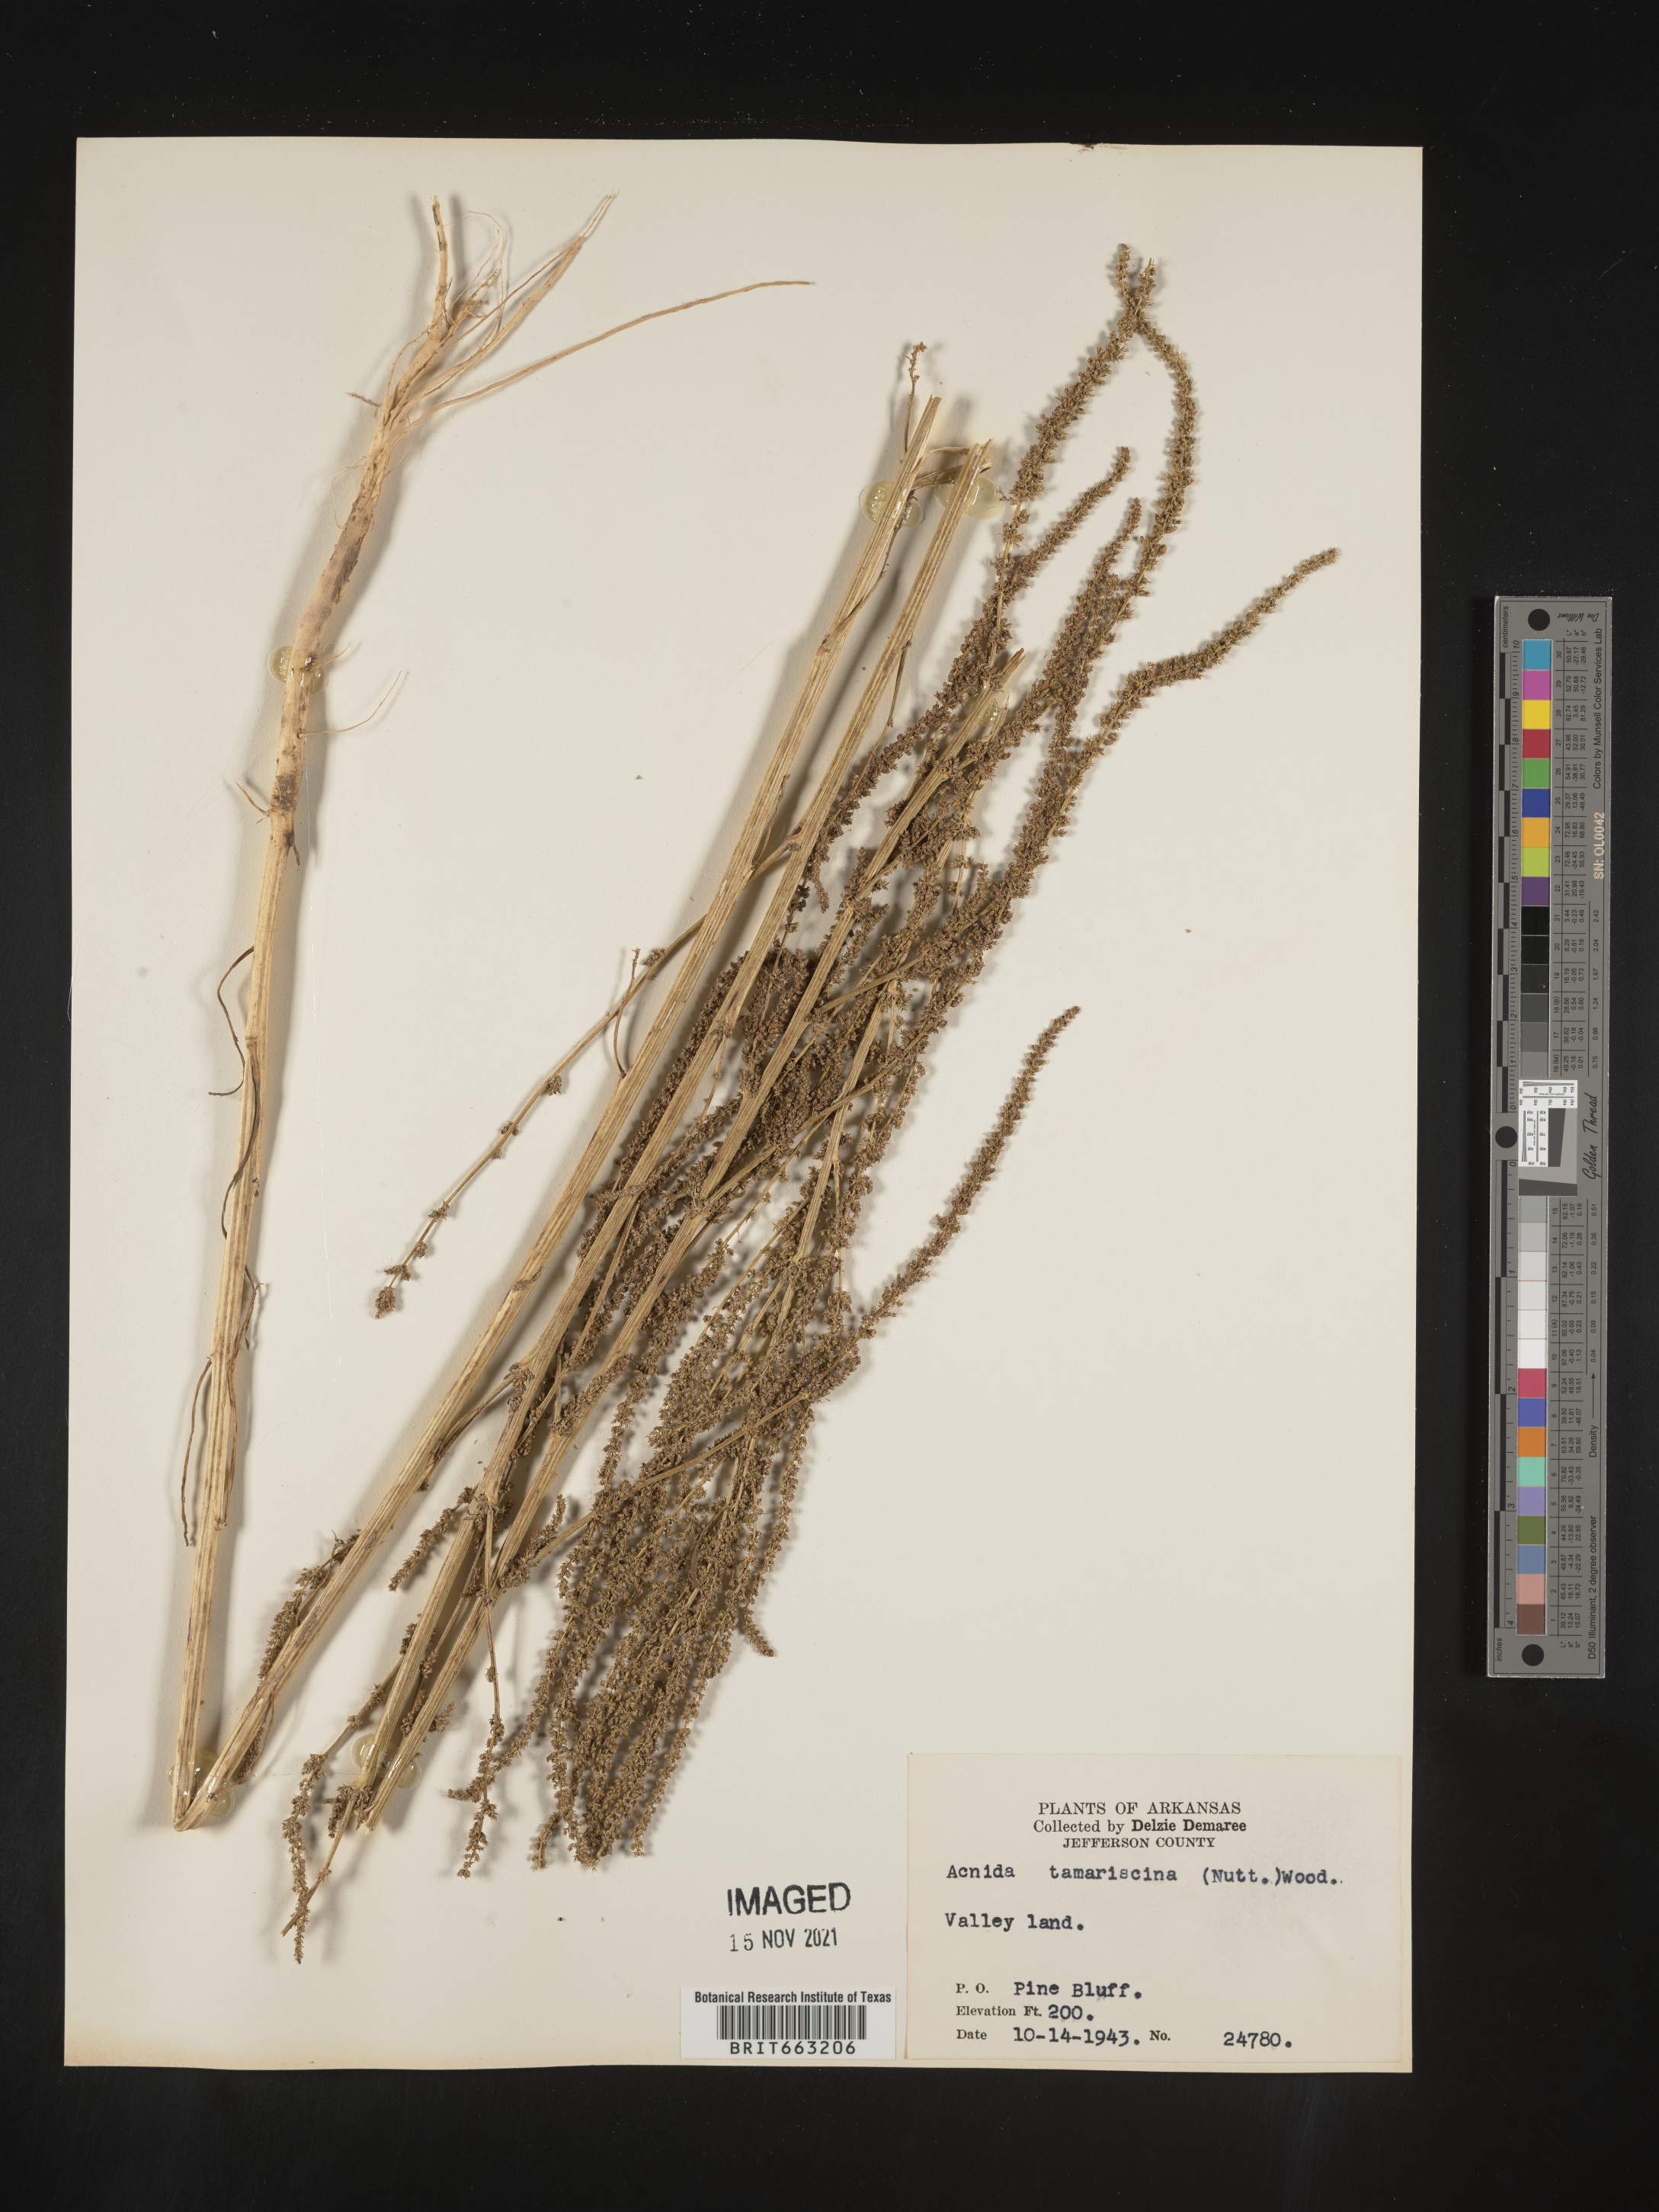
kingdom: Plantae
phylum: Tracheophyta
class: Magnoliopsida
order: Caryophyllales
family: Amaranthaceae
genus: Amaranthus
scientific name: Amaranthus tamariscinus
